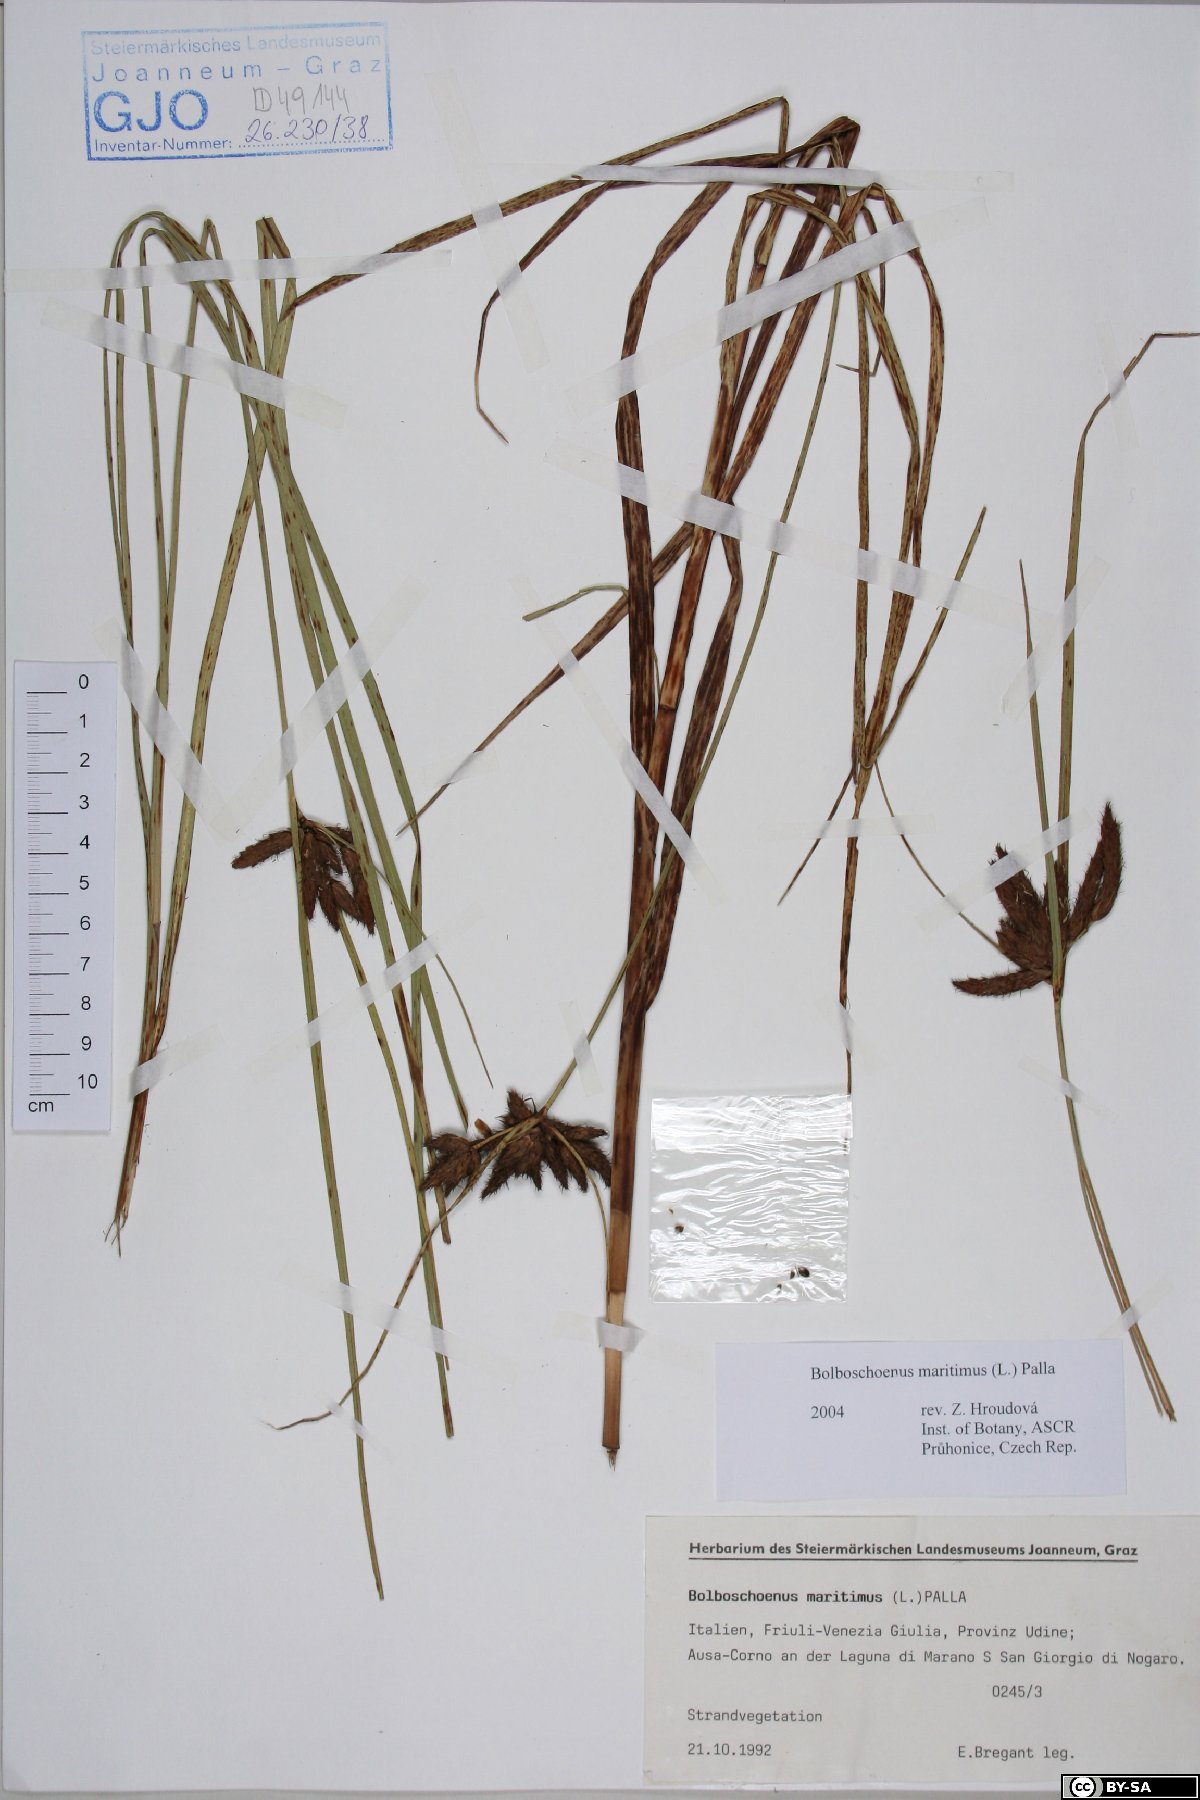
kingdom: Plantae
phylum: Tracheophyta
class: Liliopsida
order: Poales
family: Cyperaceae
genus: Bolboschoenus
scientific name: Bolboschoenus maritimus
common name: Sea club-rush
